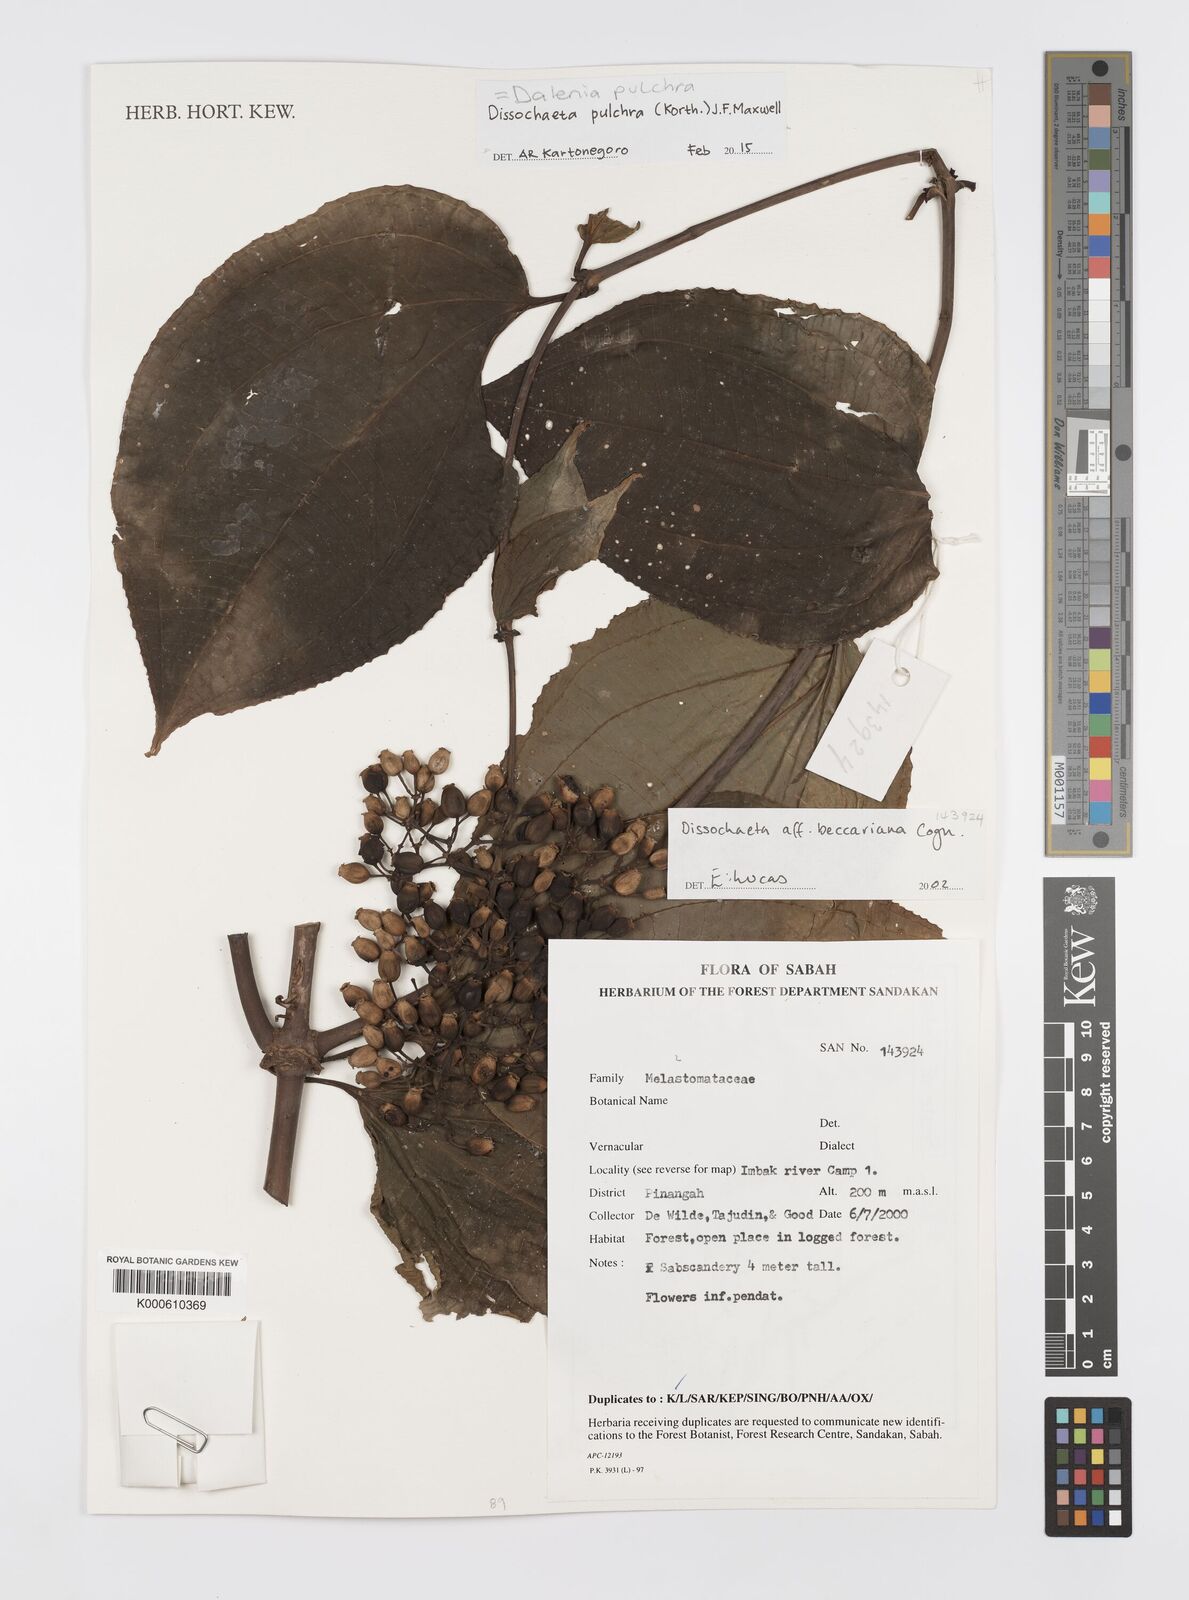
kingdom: Plantae
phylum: Tracheophyta
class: Magnoliopsida
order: Myrtales
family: Melastomataceae
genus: Dalenia
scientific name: Dalenia pulchra
